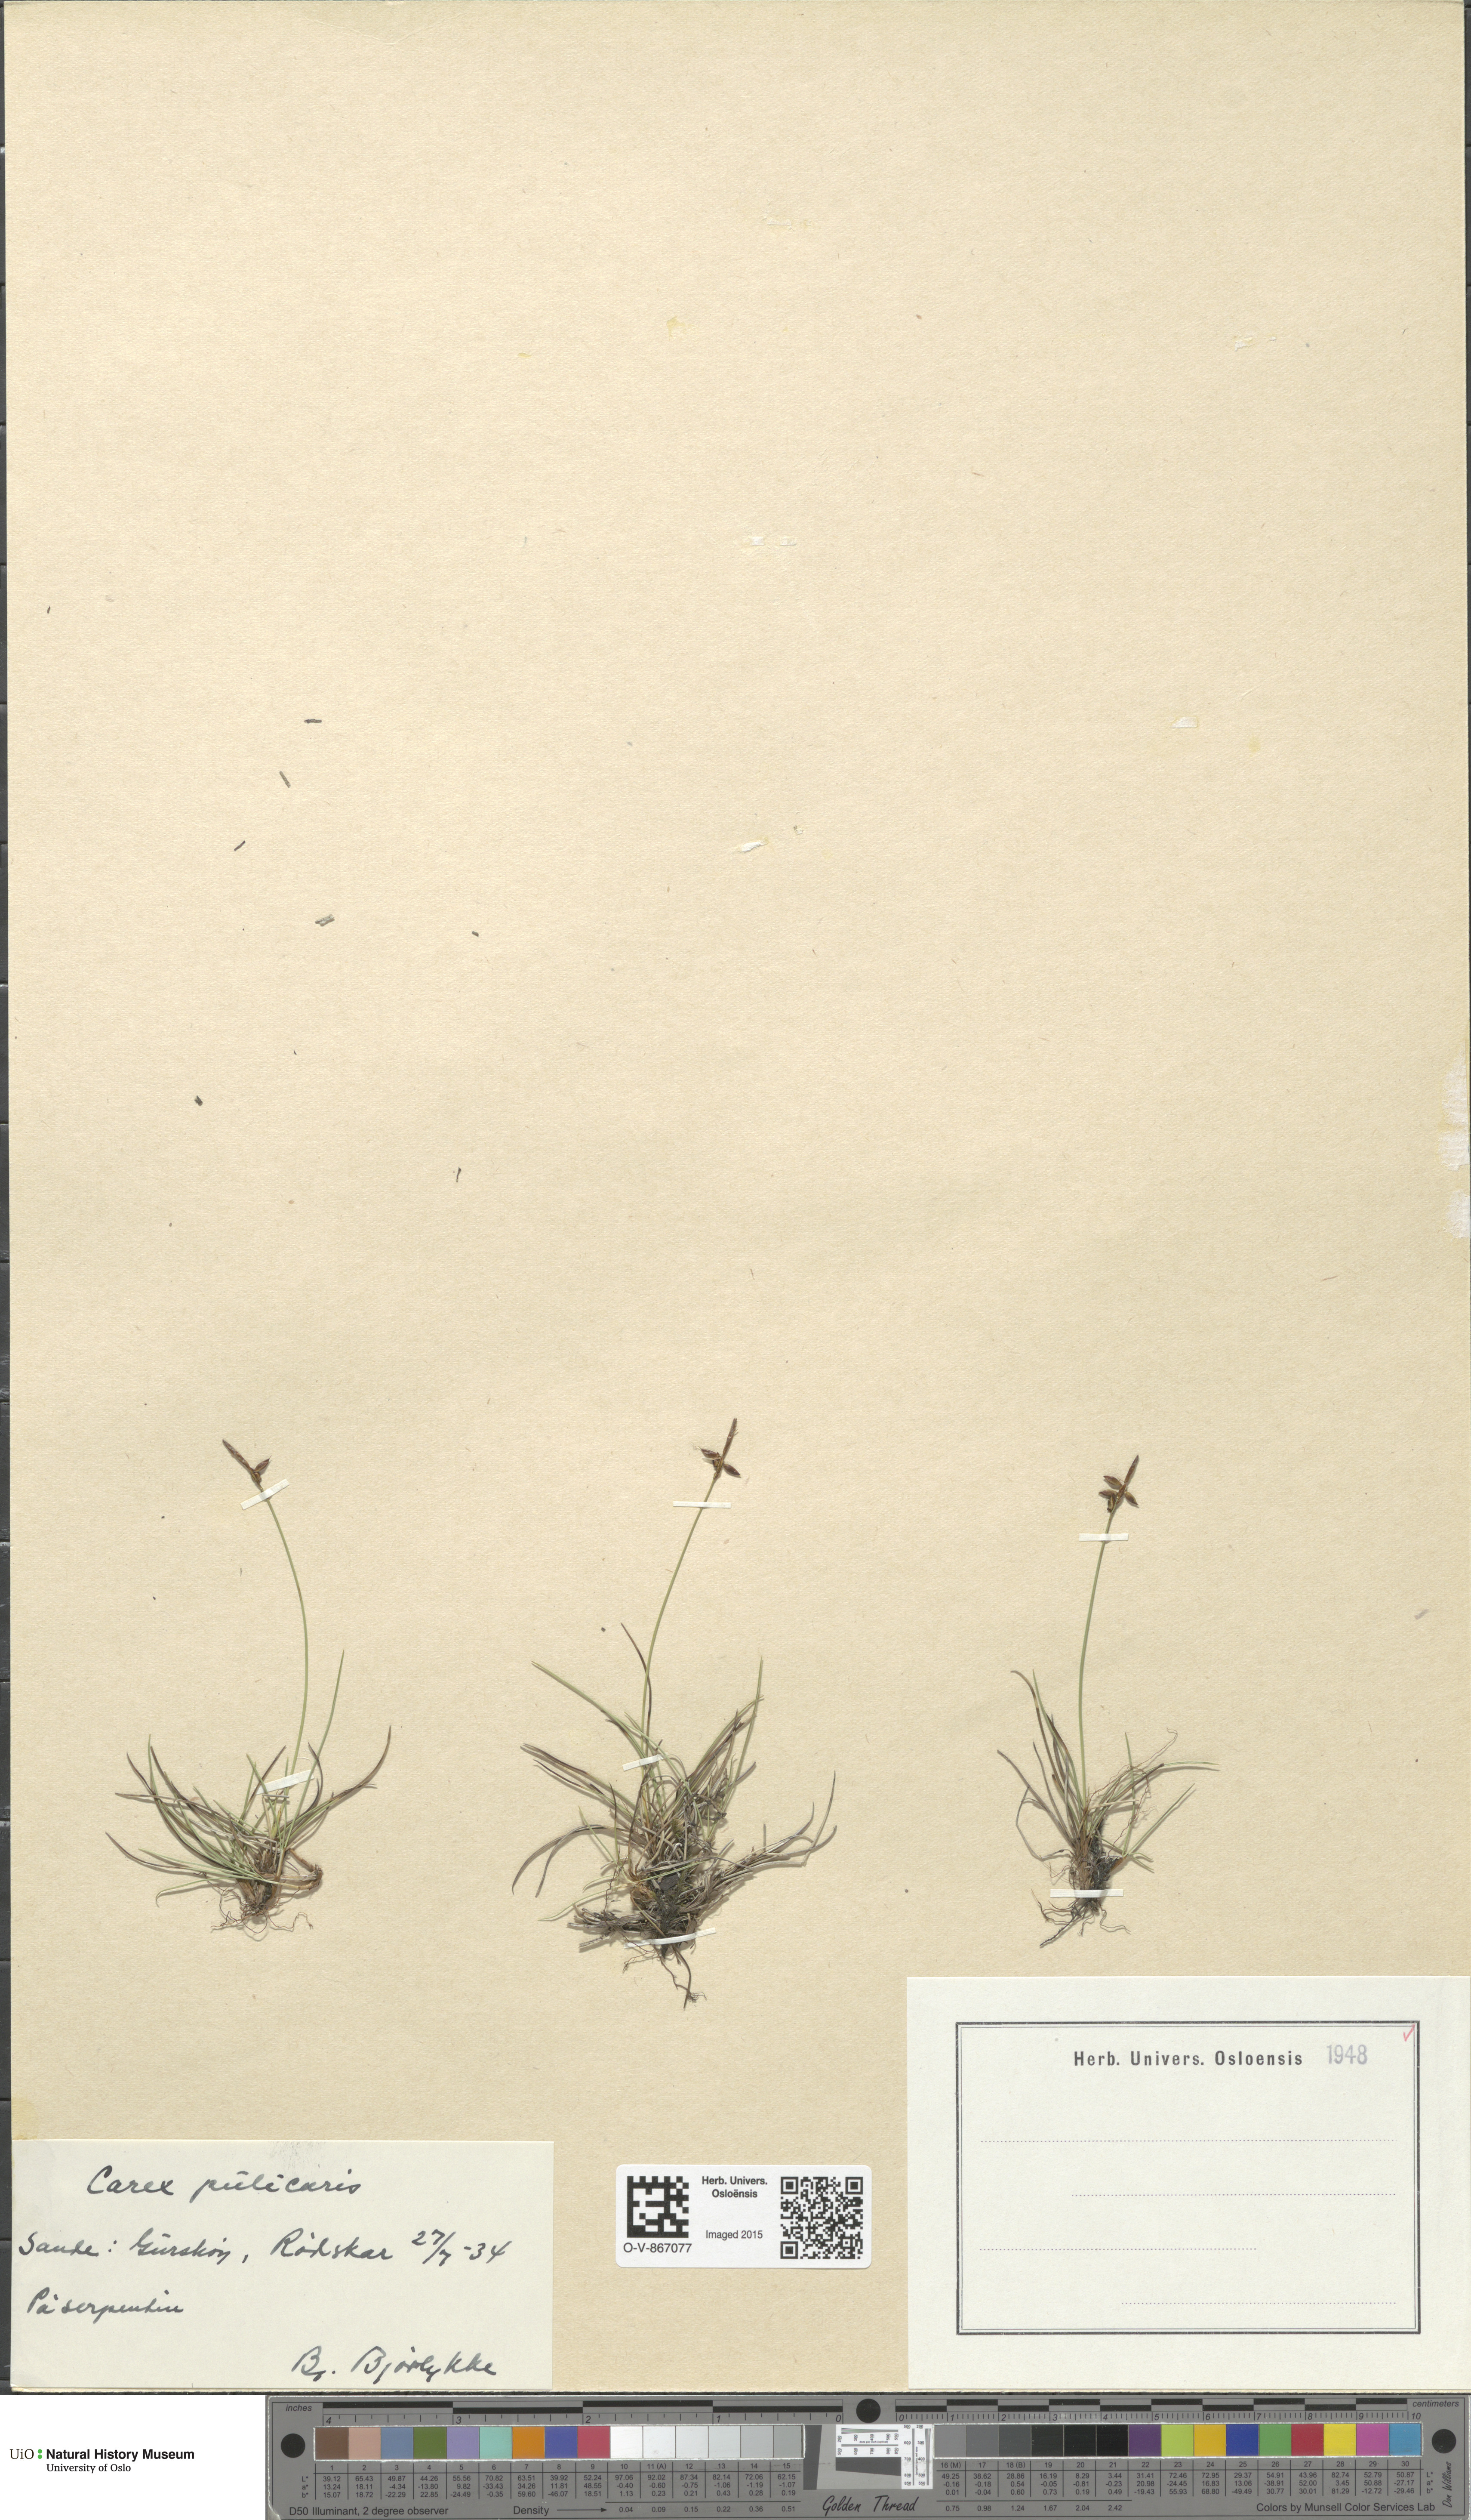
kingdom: Plantae
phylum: Tracheophyta
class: Liliopsida
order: Poales
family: Cyperaceae
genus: Carex
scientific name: Carex pulicaris
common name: Flea sedge
